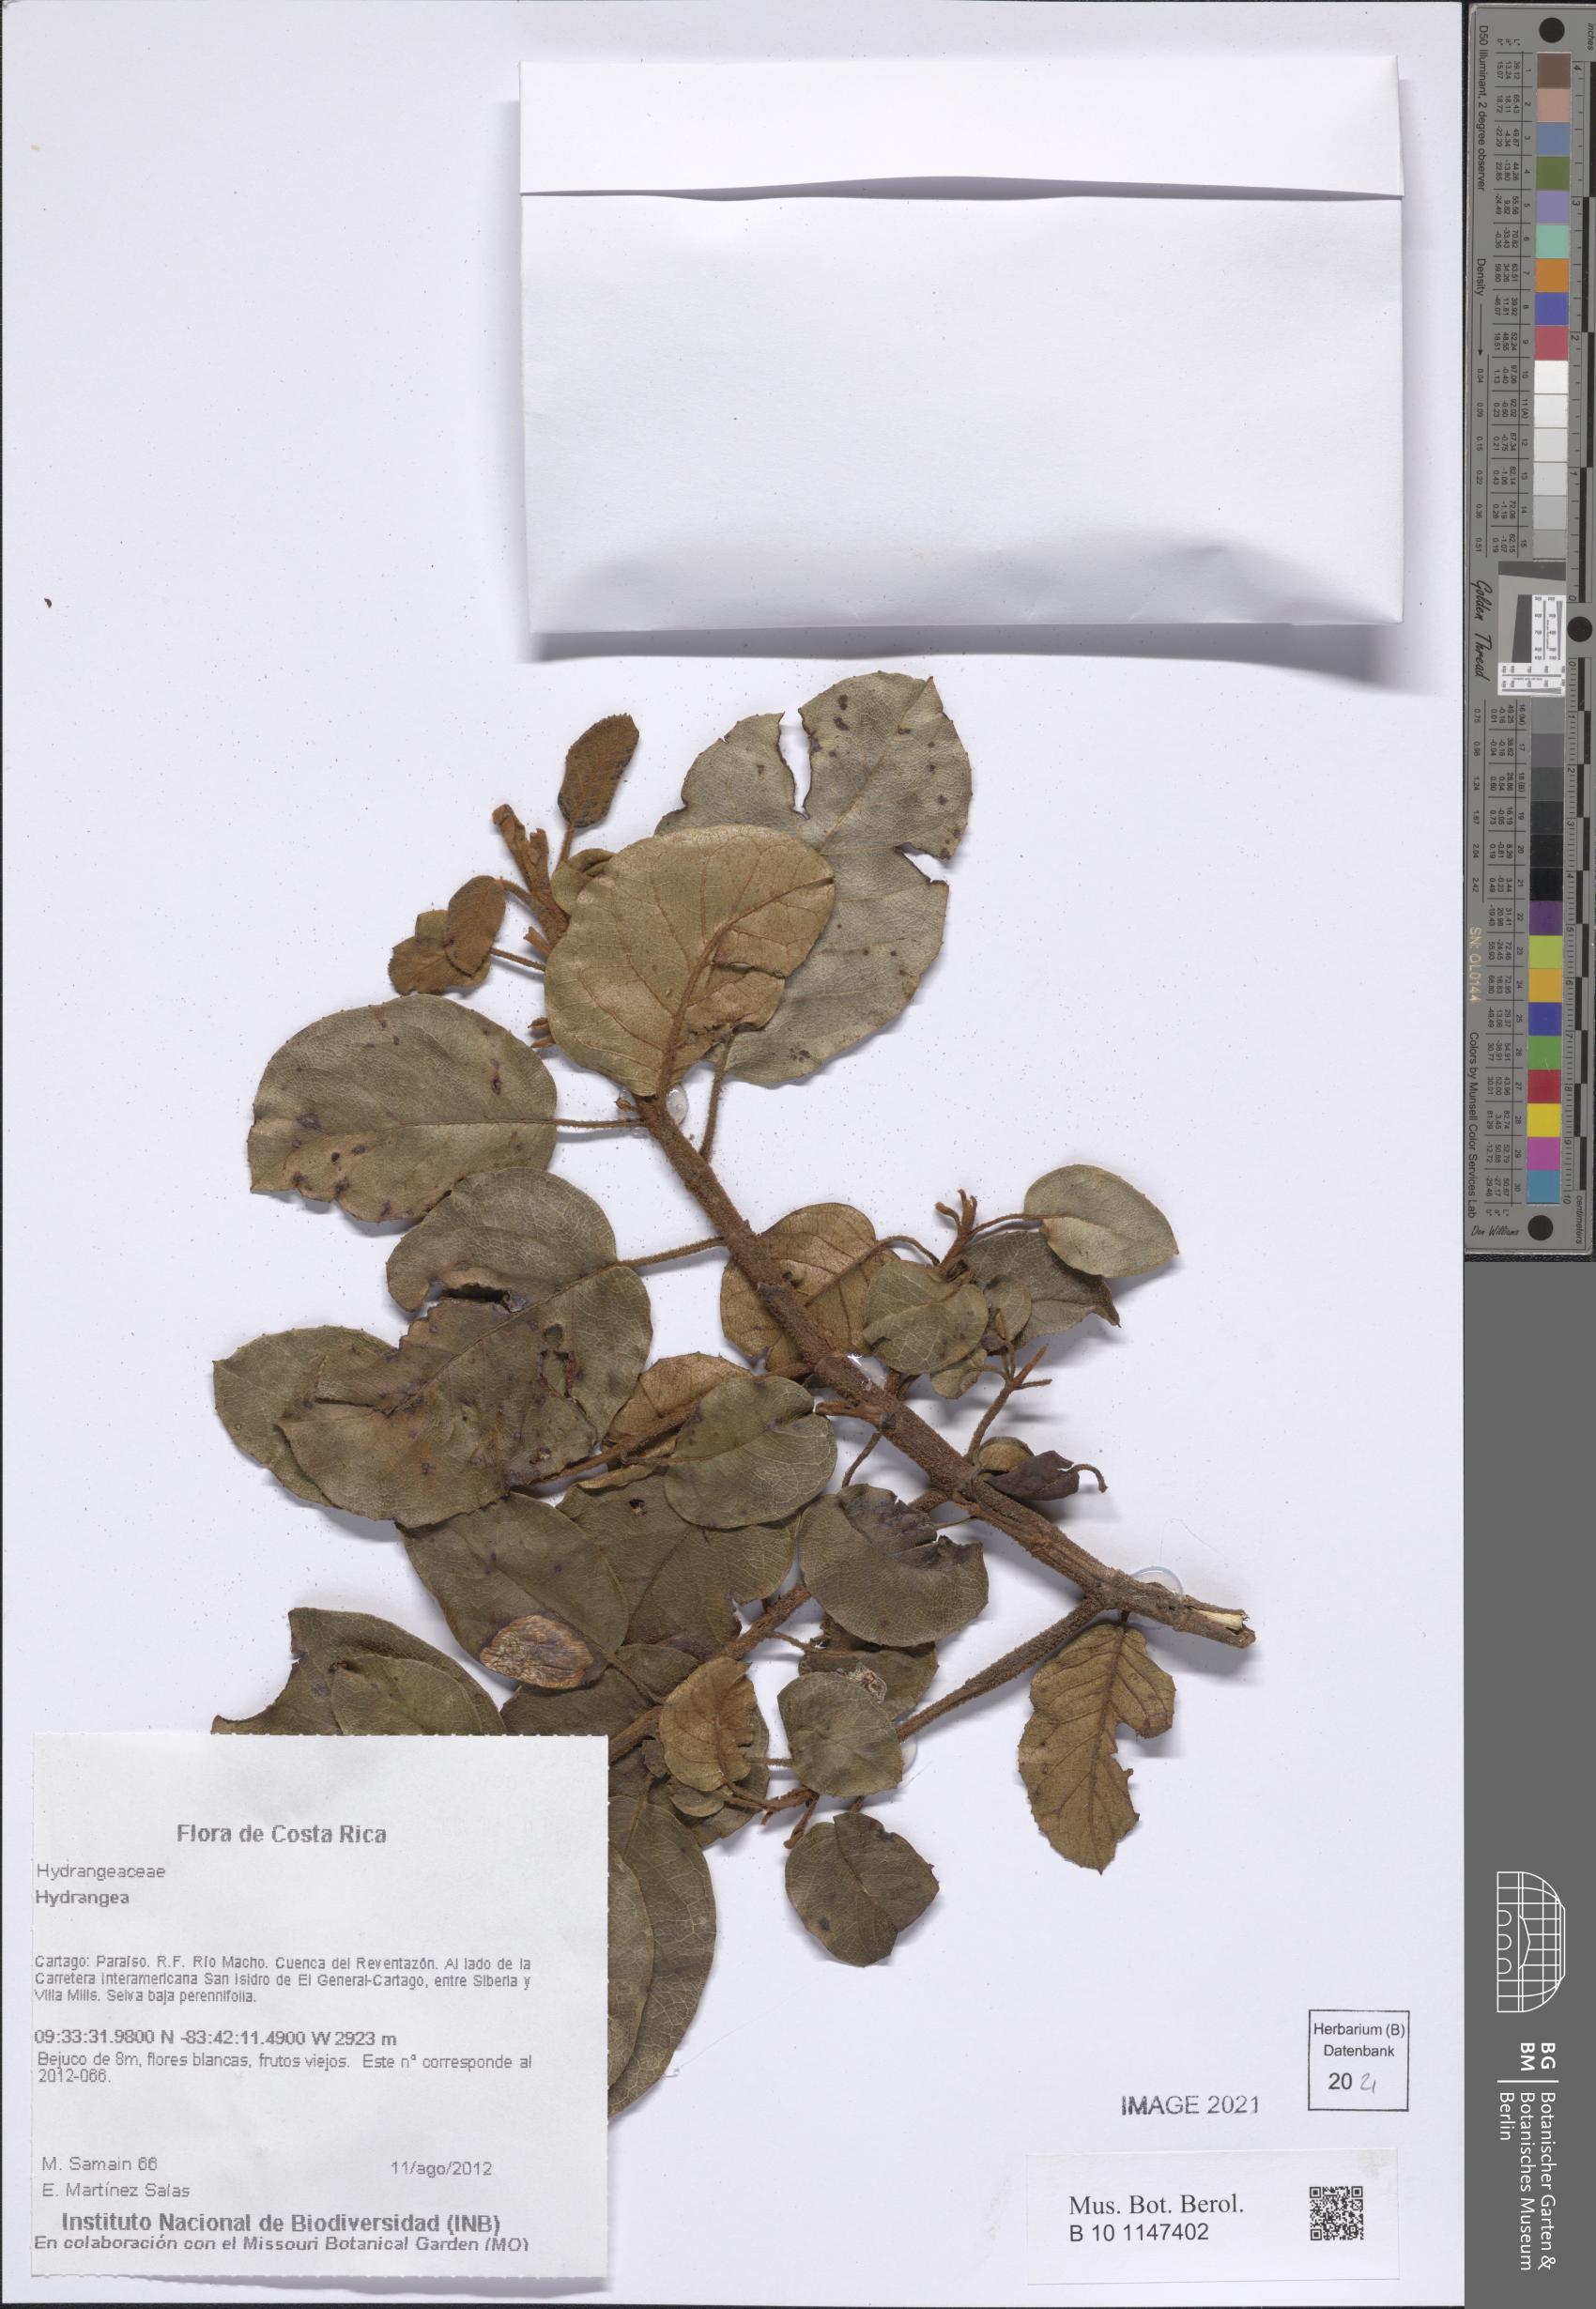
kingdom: Plantae
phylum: Tracheophyta
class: Magnoliopsida
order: Cornales
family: Hydrangeaceae
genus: Hydrangea
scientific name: Hydrangea
